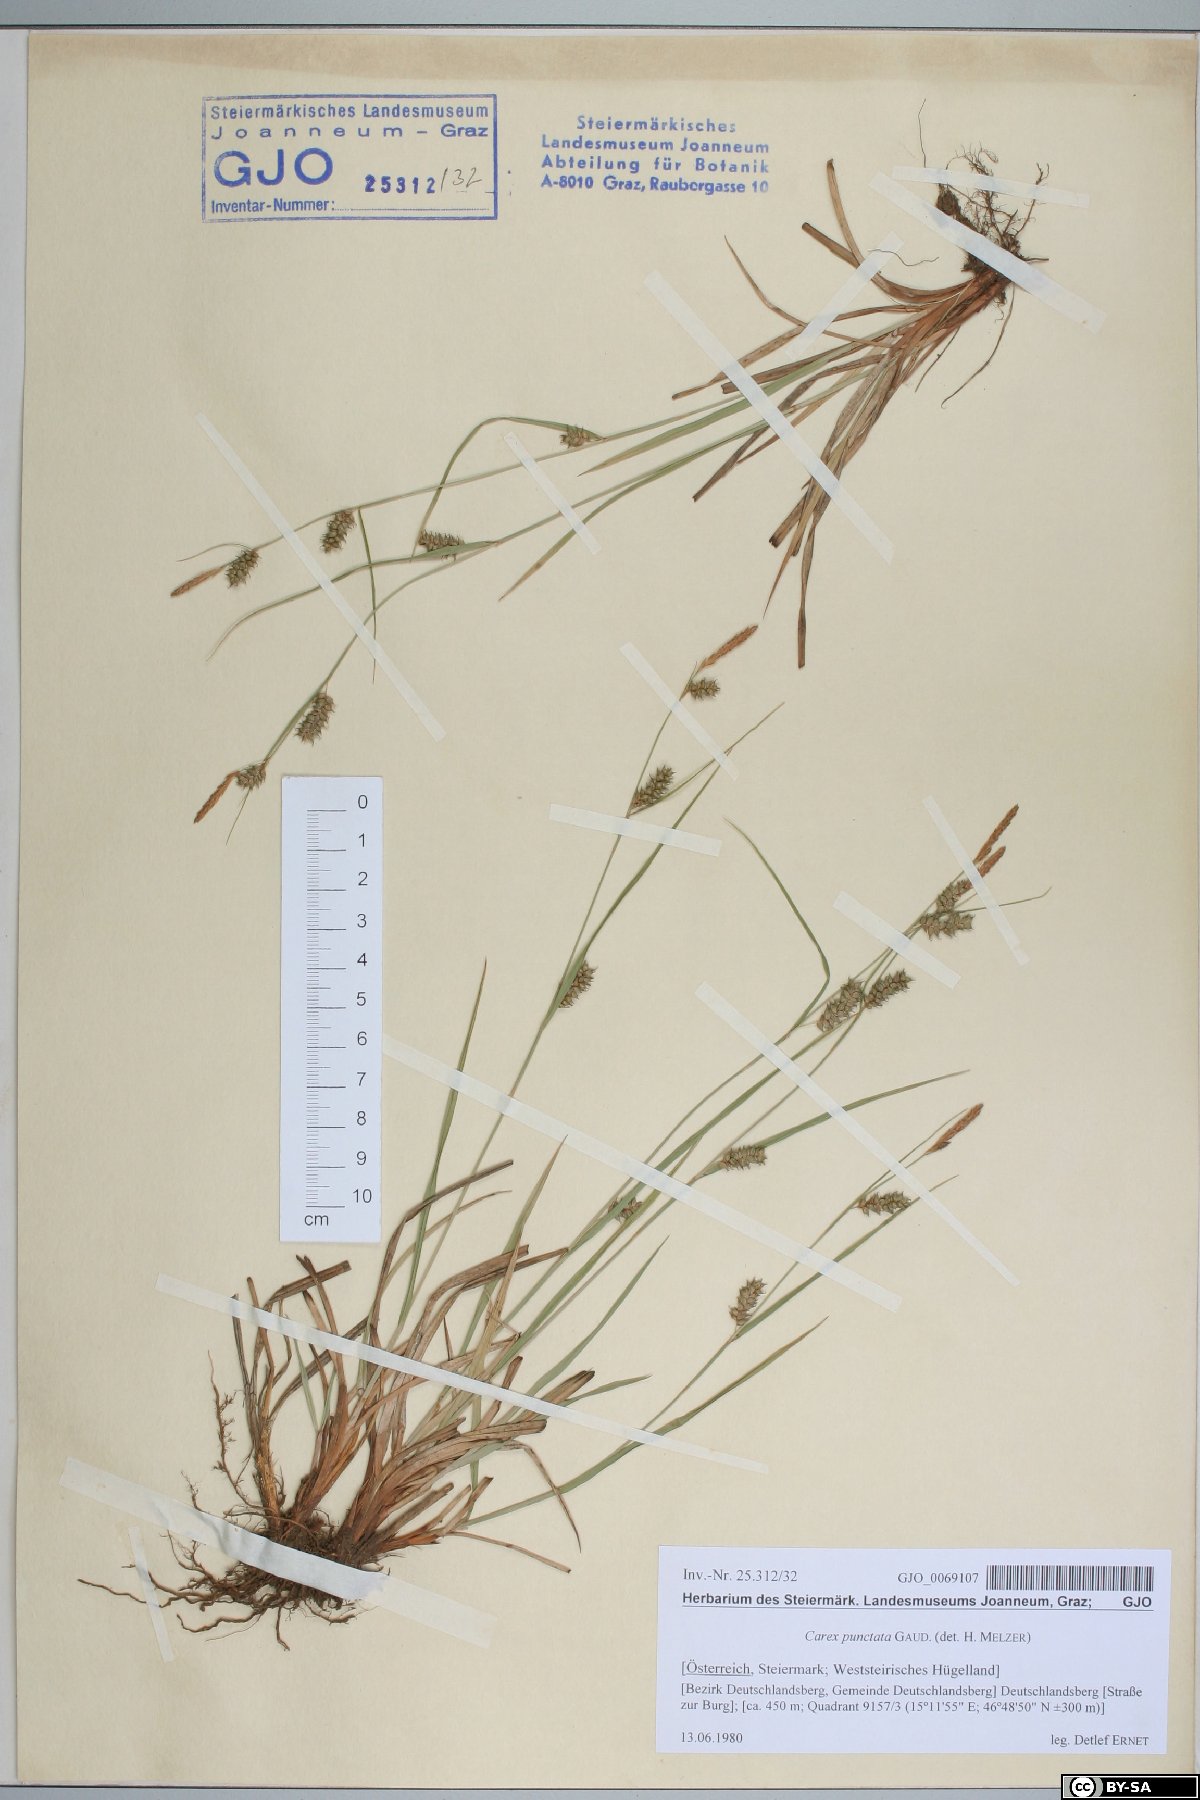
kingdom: Plantae
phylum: Tracheophyta
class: Liliopsida
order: Poales
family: Cyperaceae
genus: Carex
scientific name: Carex punctata
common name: Dotted sedge
